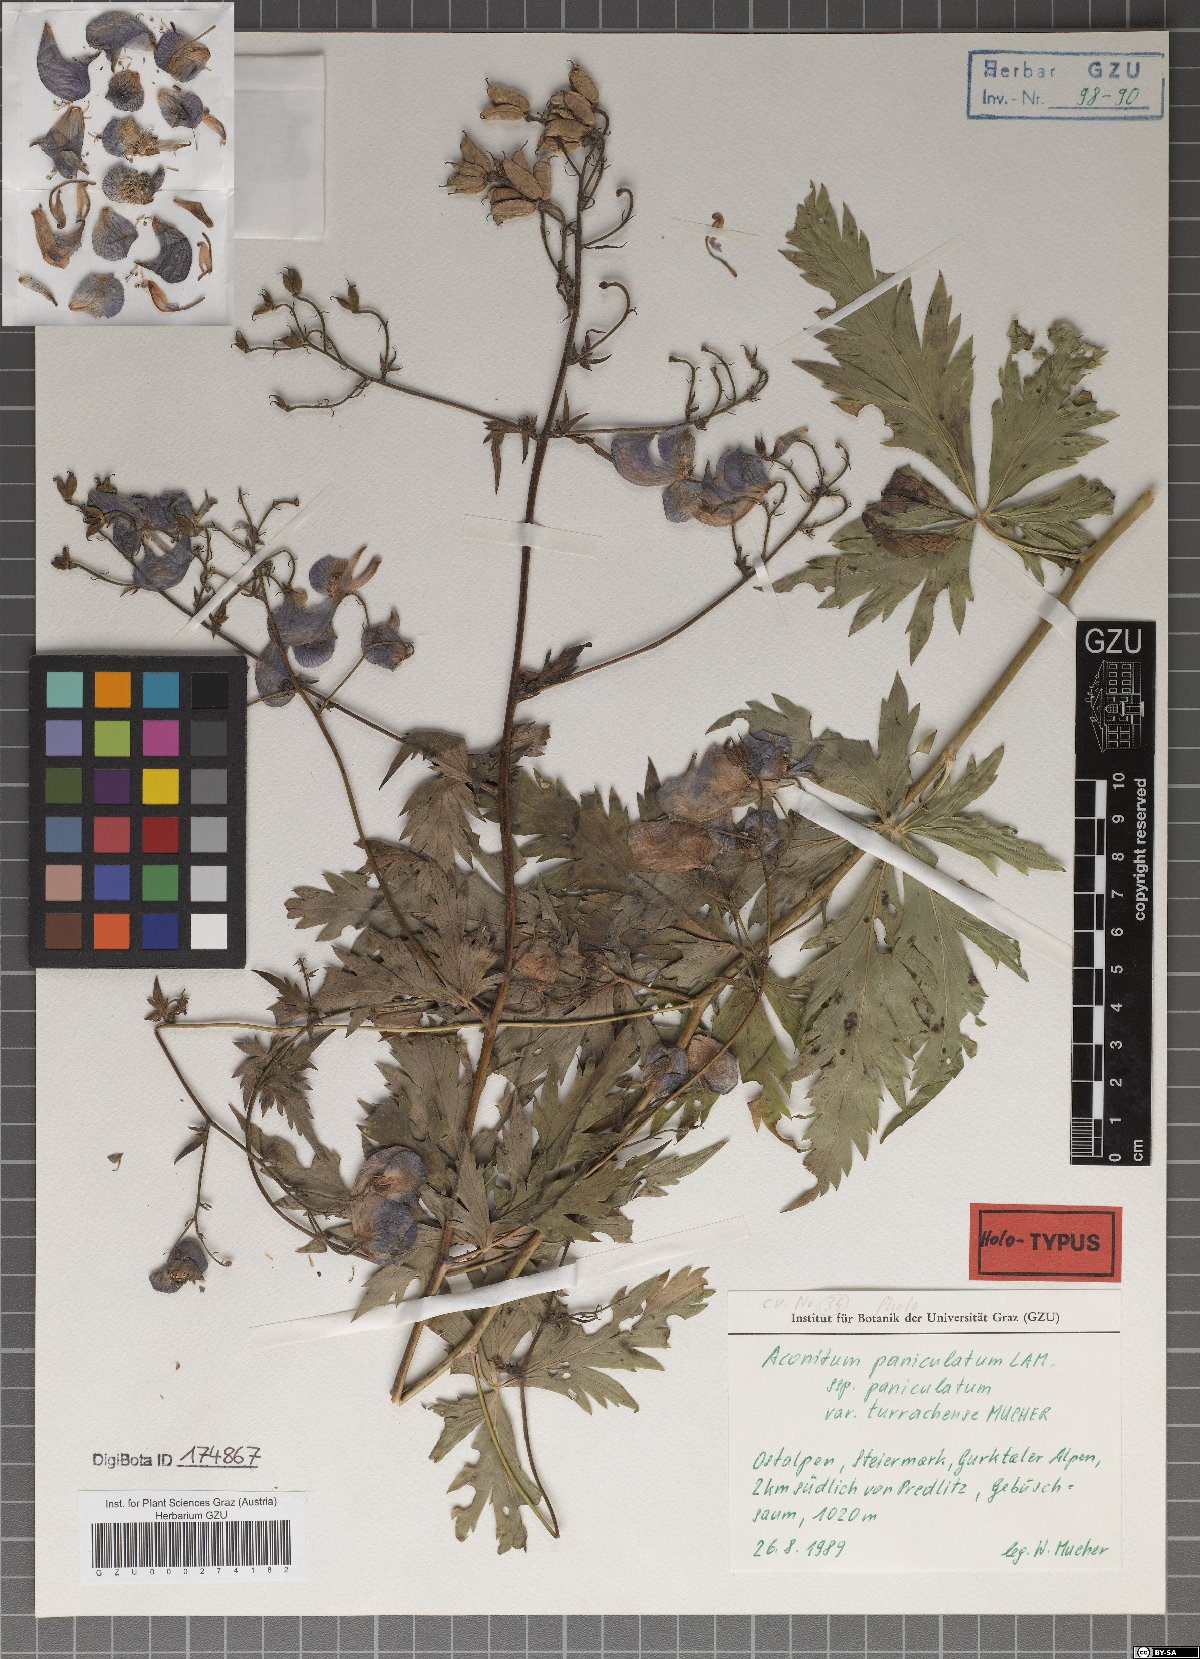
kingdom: Plantae
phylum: Tracheophyta
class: Magnoliopsida
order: Ranunculales
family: Ranunculaceae
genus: Aconitum
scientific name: Aconitum degenii
